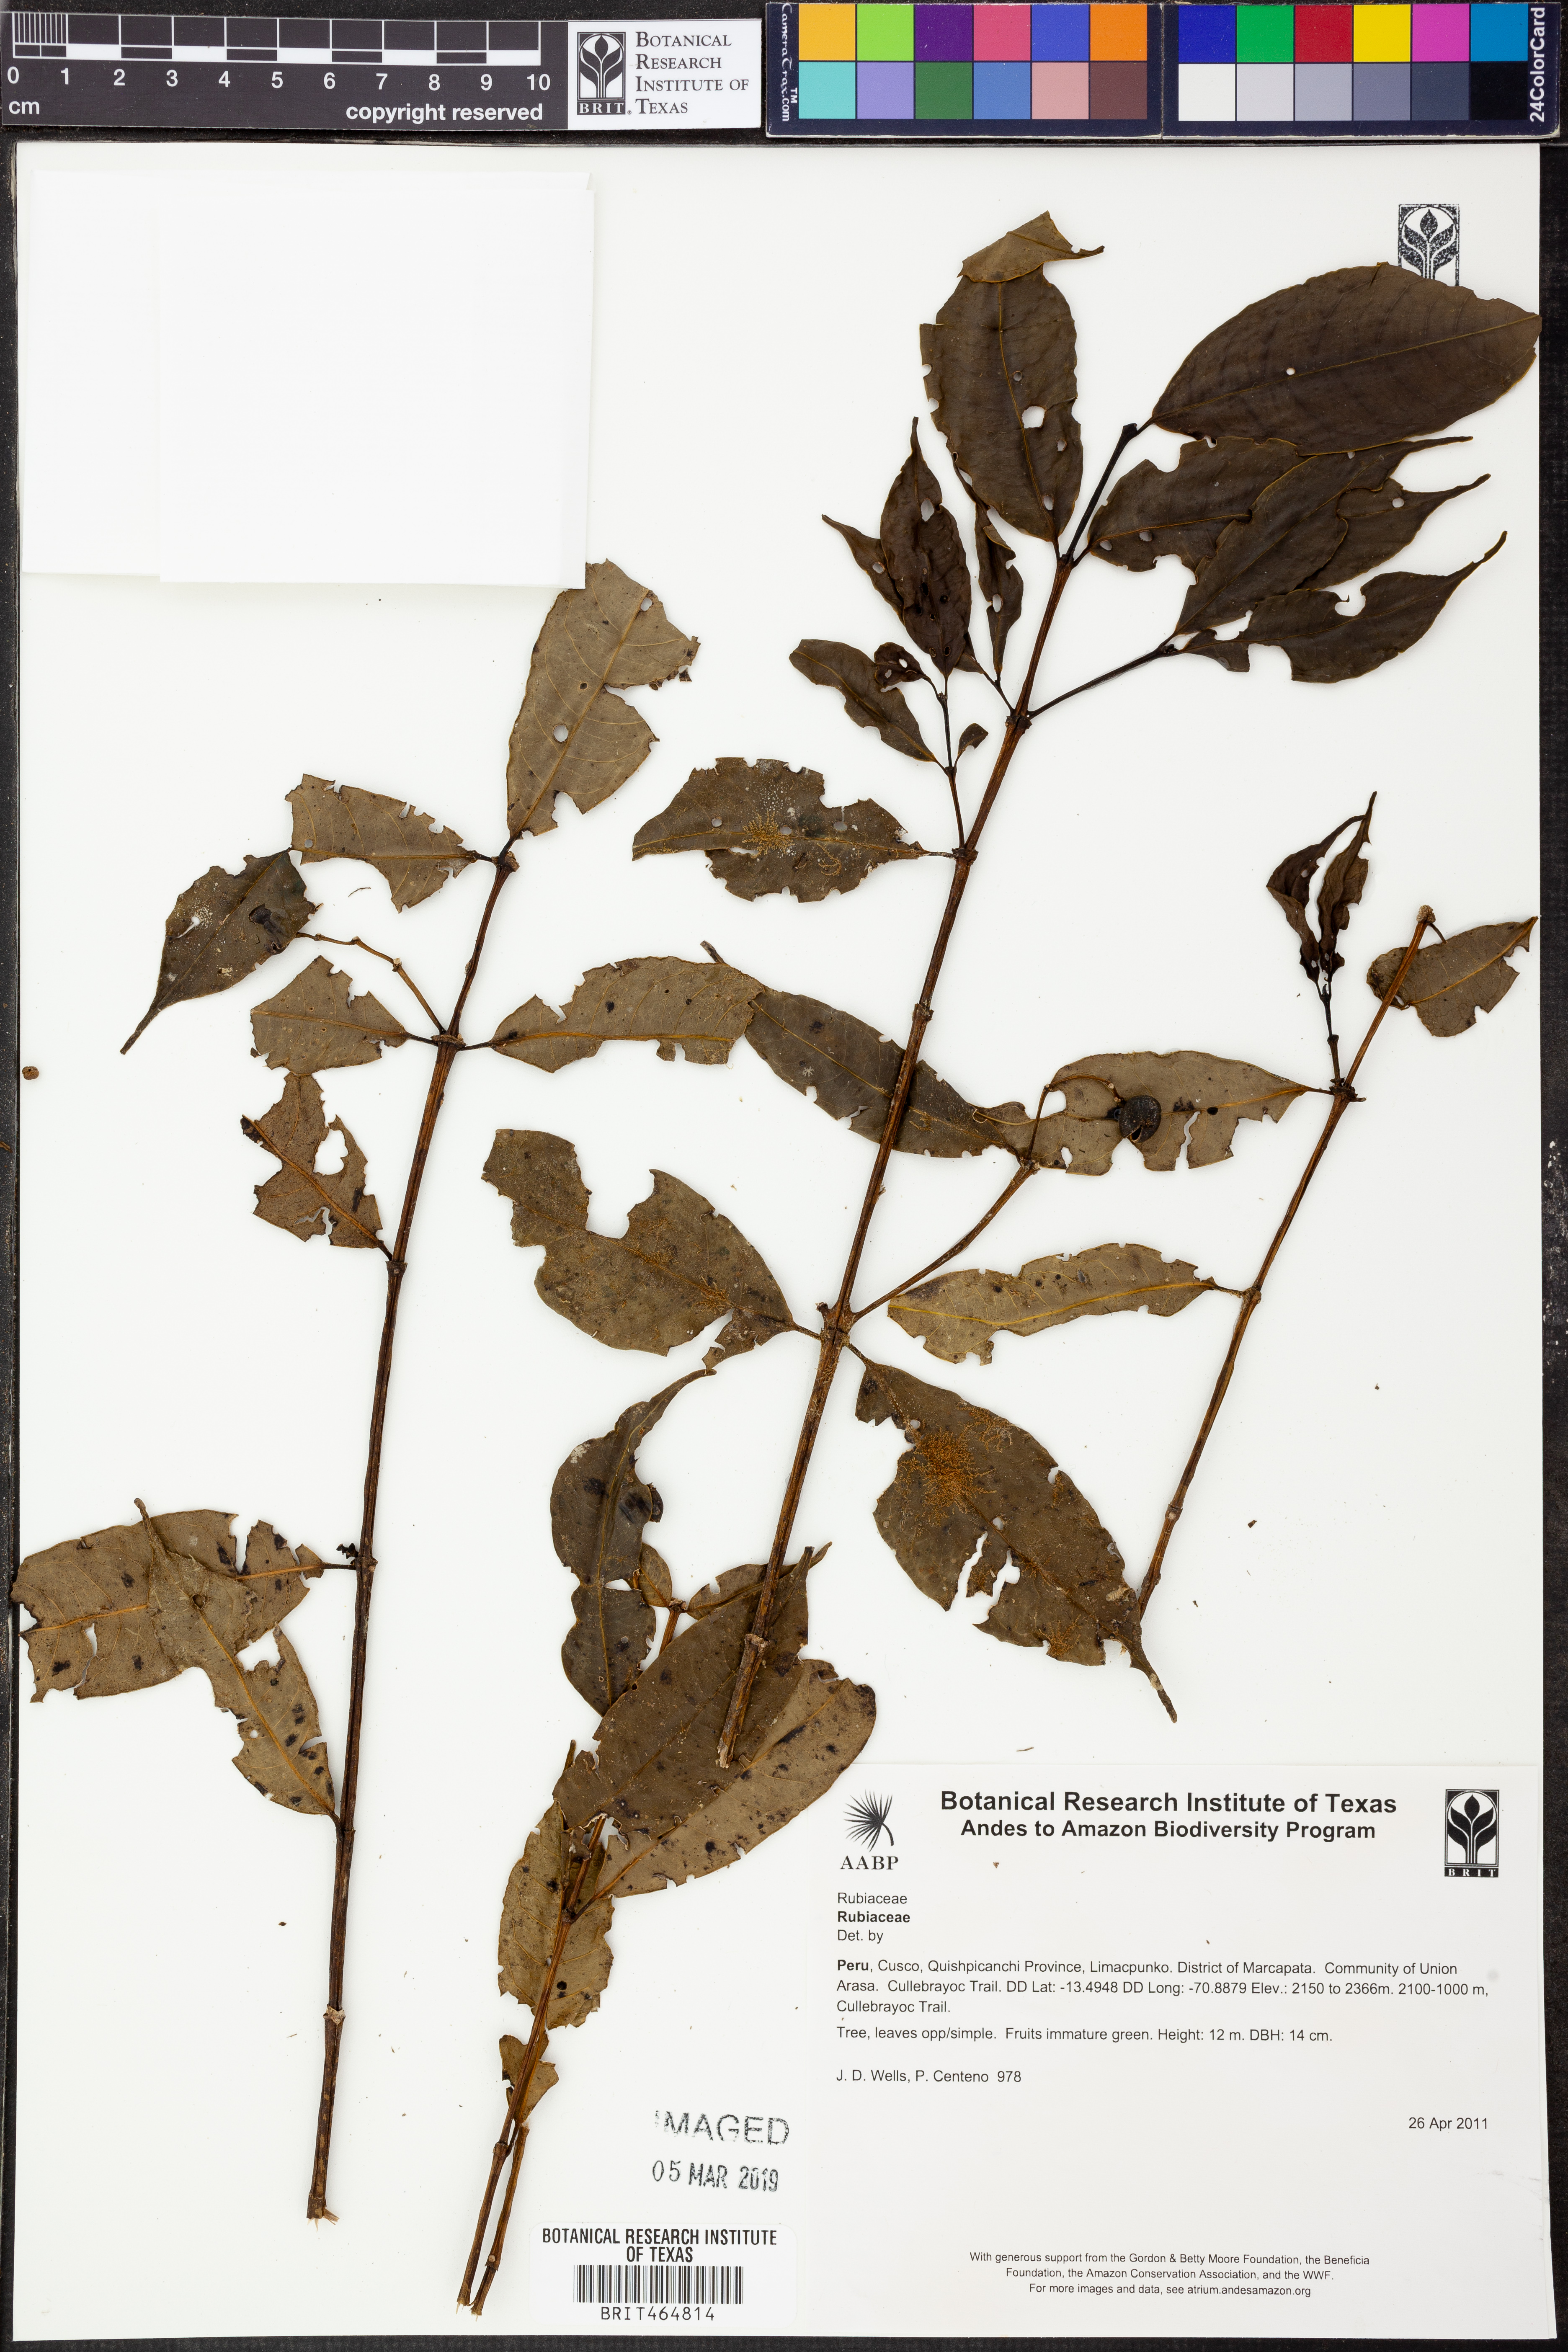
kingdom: Plantae
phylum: Tracheophyta
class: Magnoliopsida
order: Gentianales
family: Rubiaceae
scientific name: Rubiaceae
